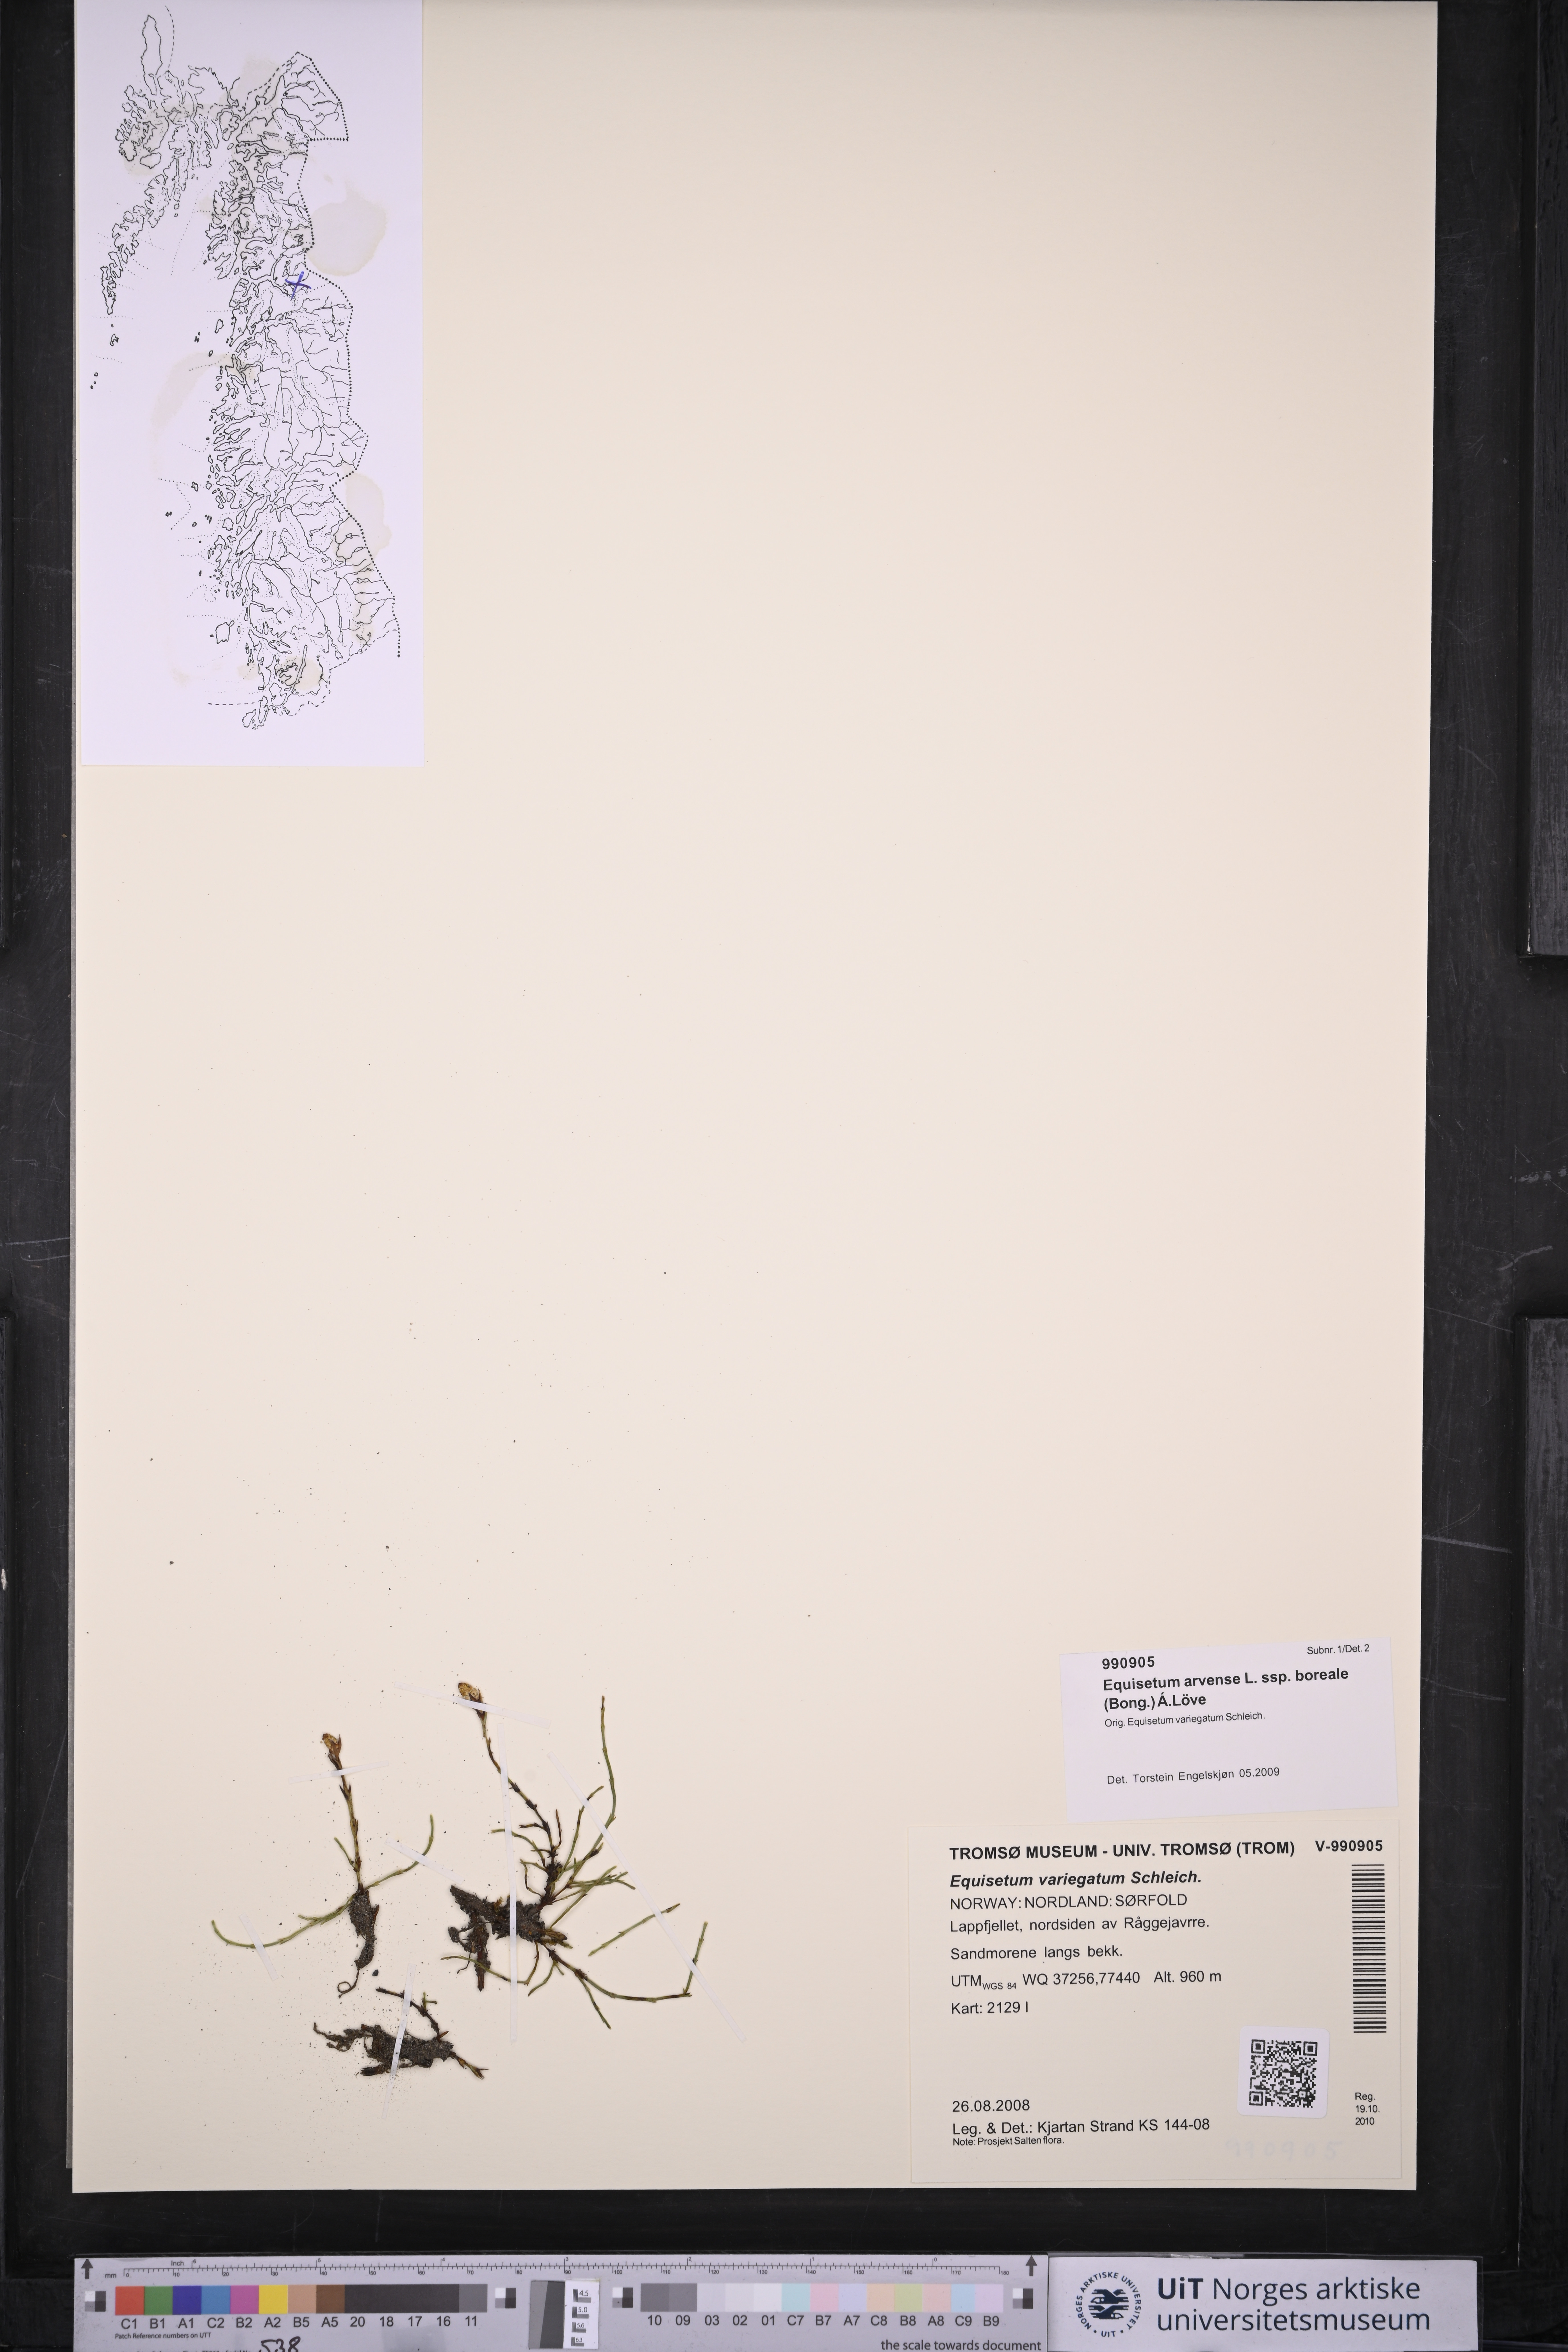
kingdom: Plantae
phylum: Tracheophyta
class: Polypodiopsida
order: Equisetales
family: Equisetaceae
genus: Equisetum
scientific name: Equisetum arvense
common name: Field horsetail
